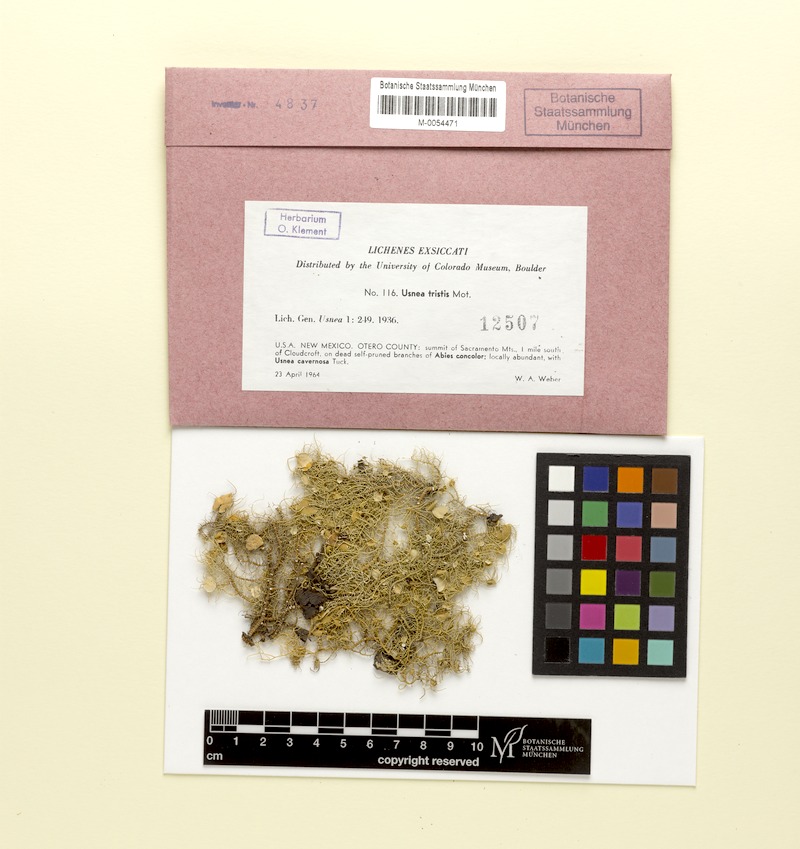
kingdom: Fungi
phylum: Ascomycota
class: Lecanoromycetes
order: Lecanorales
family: Parmeliaceae
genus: Usnea
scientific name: Usnea cavernosa
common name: Pitted beard lichen
